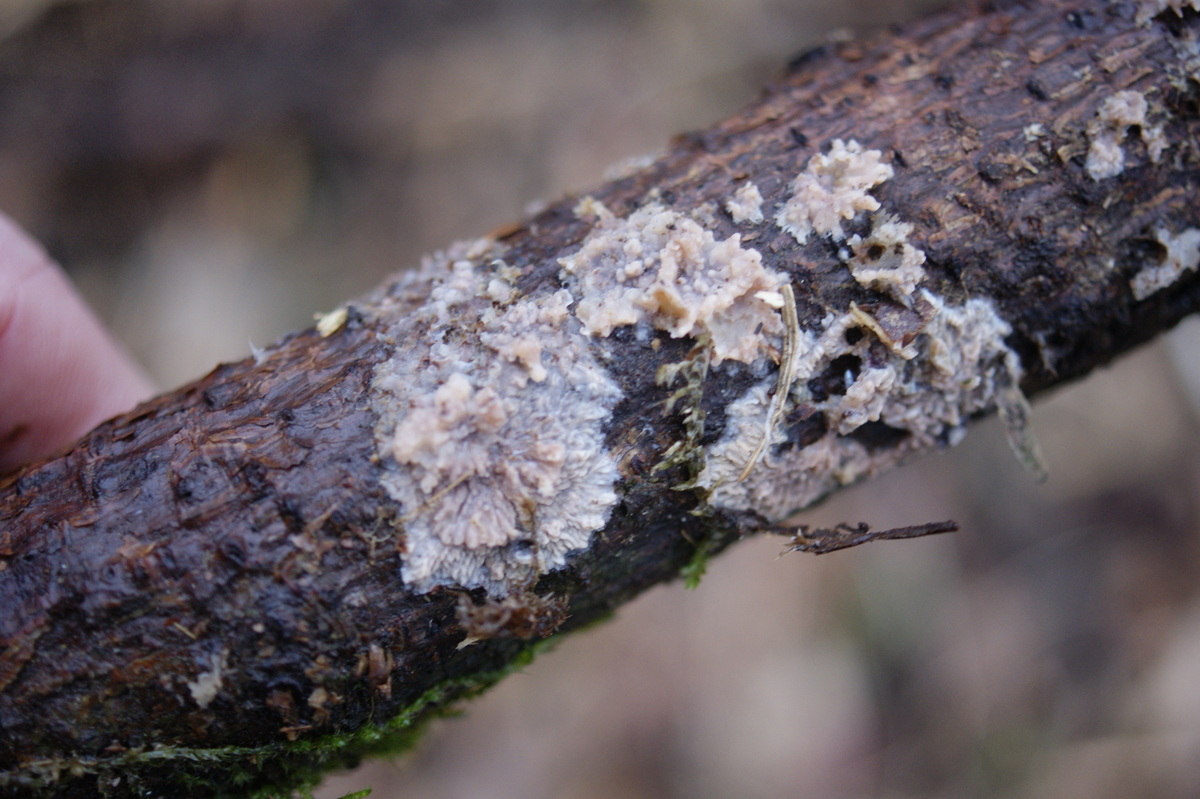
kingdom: Fungi
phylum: Basidiomycota
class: Agaricomycetes
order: Polyporales
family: Meruliaceae
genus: Phlebia
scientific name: Phlebia radiata
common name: stråle-åresvamp
